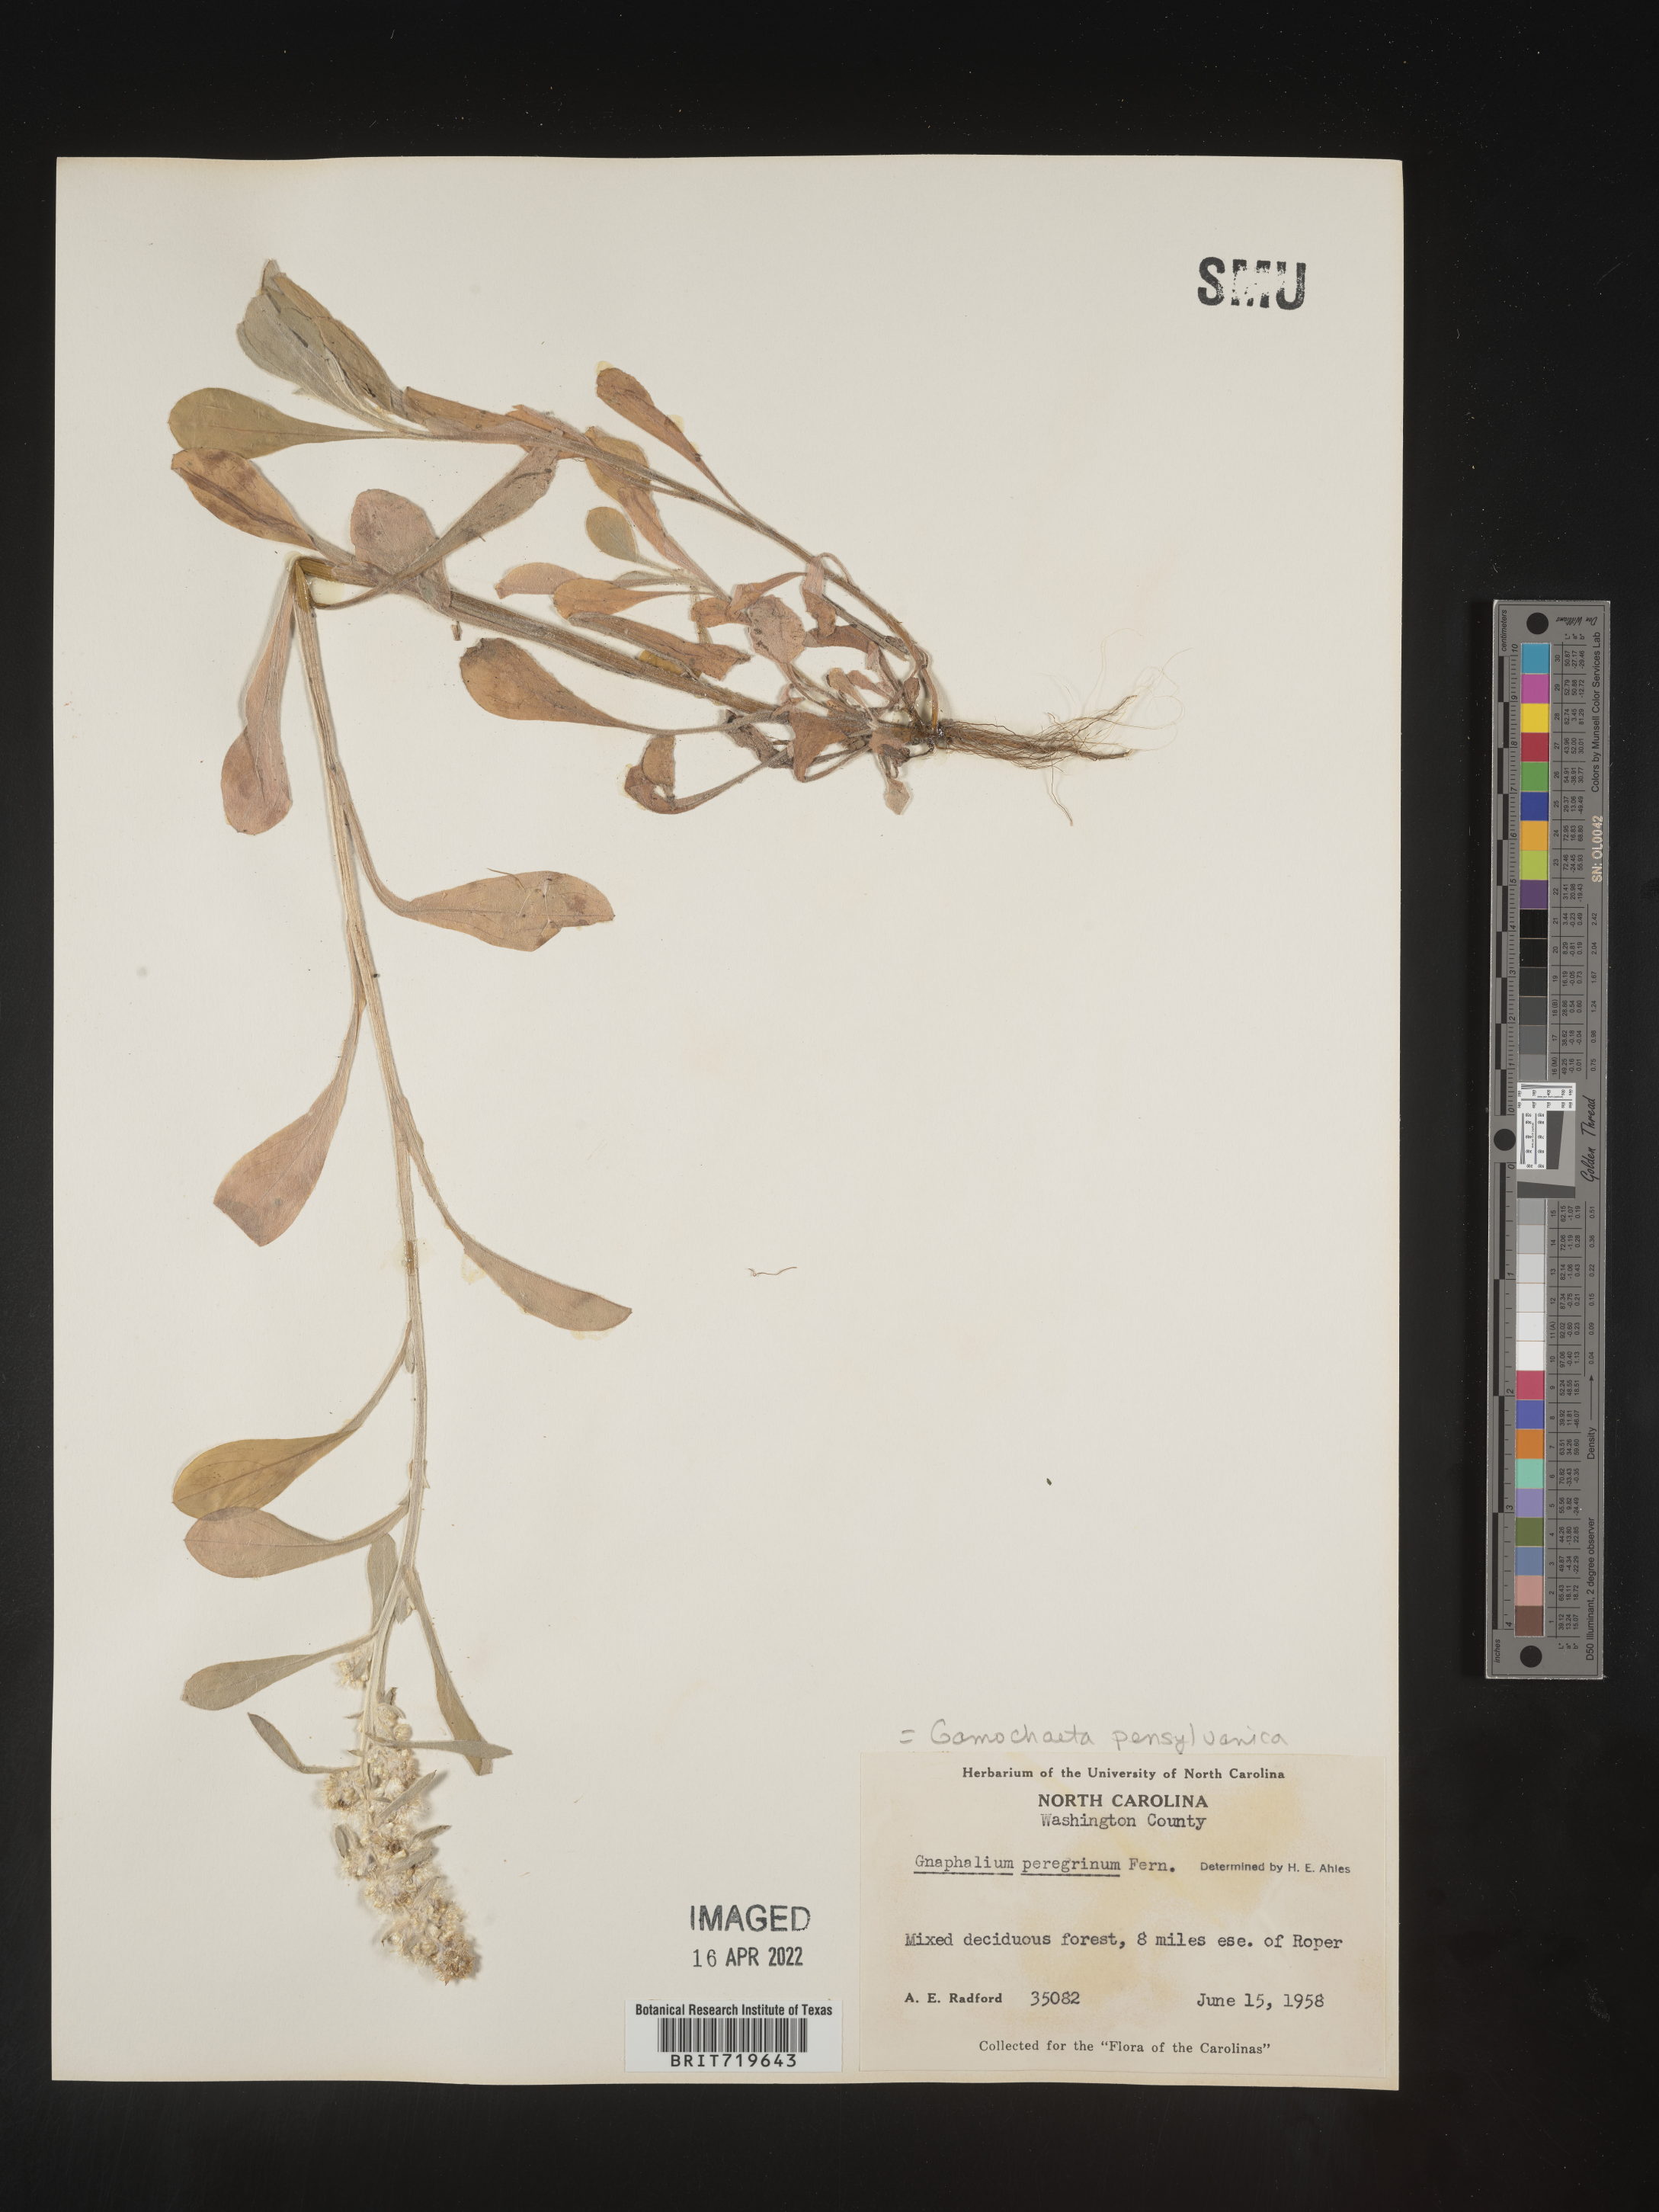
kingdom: Plantae
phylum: Tracheophyta
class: Magnoliopsida
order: Asterales
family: Asteraceae
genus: Gamochaeta
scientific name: Gamochaeta pensylvanica
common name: Pennsylvania everlasting
